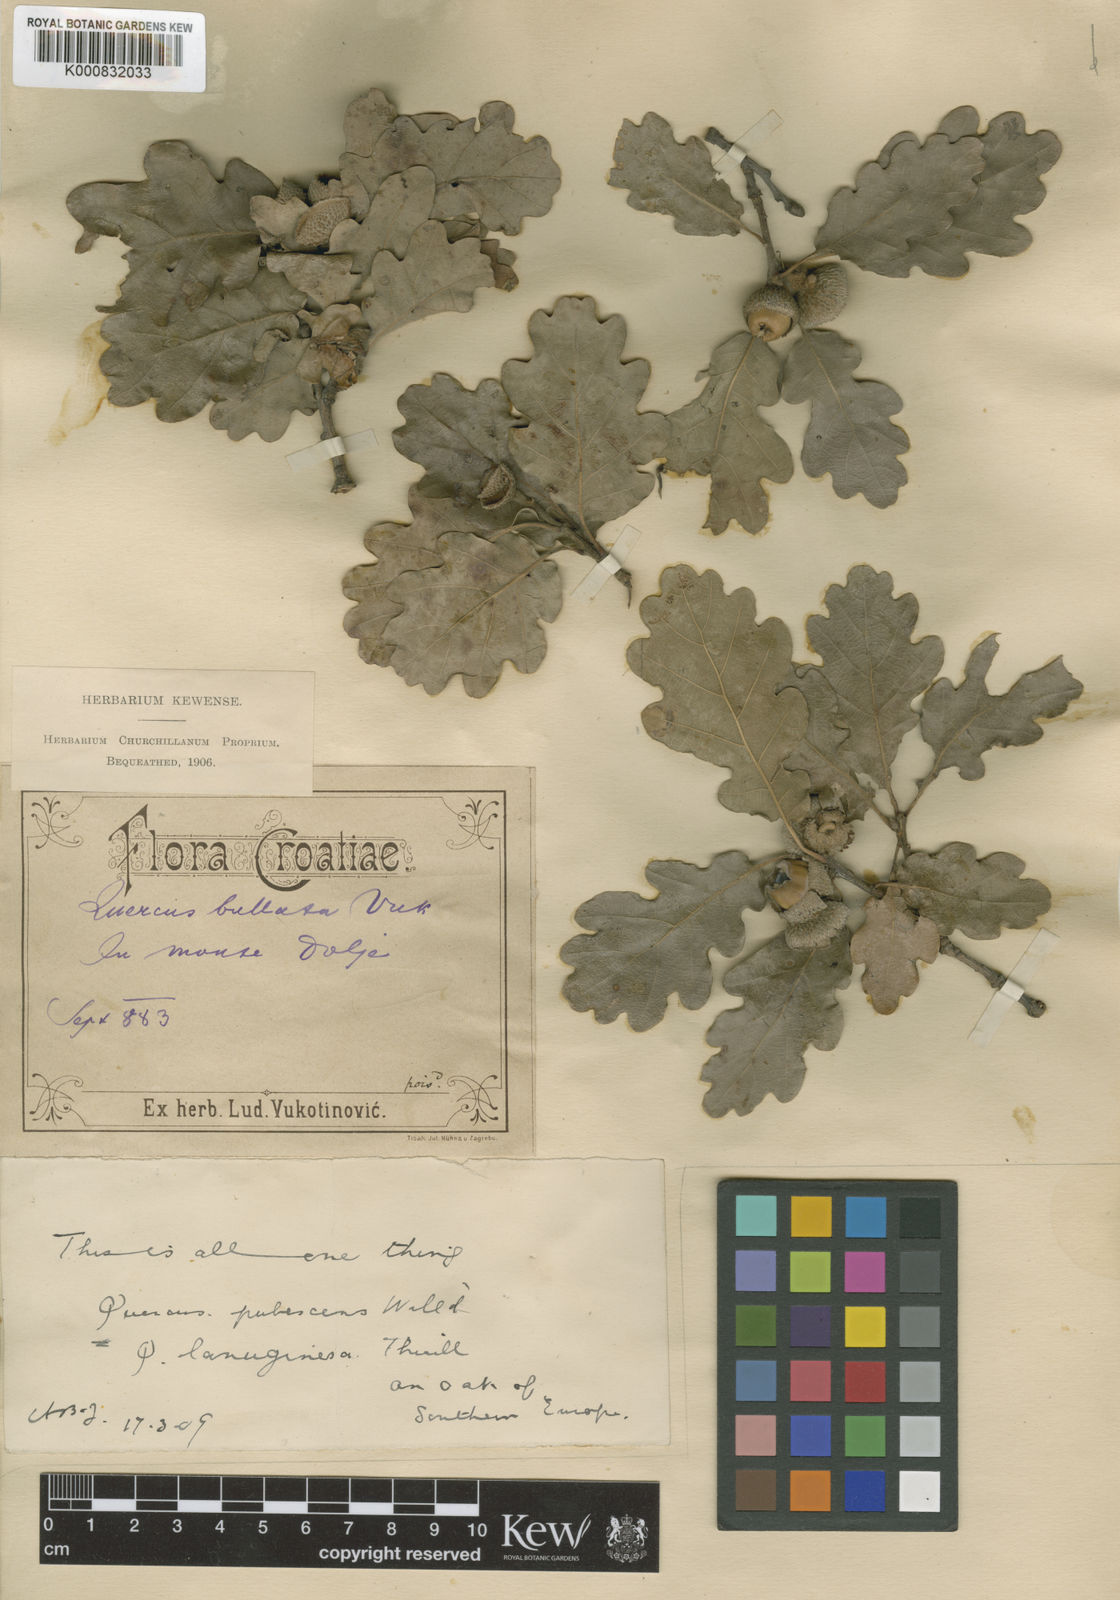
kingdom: Plantae
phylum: Tracheophyta
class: Magnoliopsida
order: Fagales
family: Fagaceae
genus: Quercus
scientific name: Quercus pubescens
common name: Downy oak
